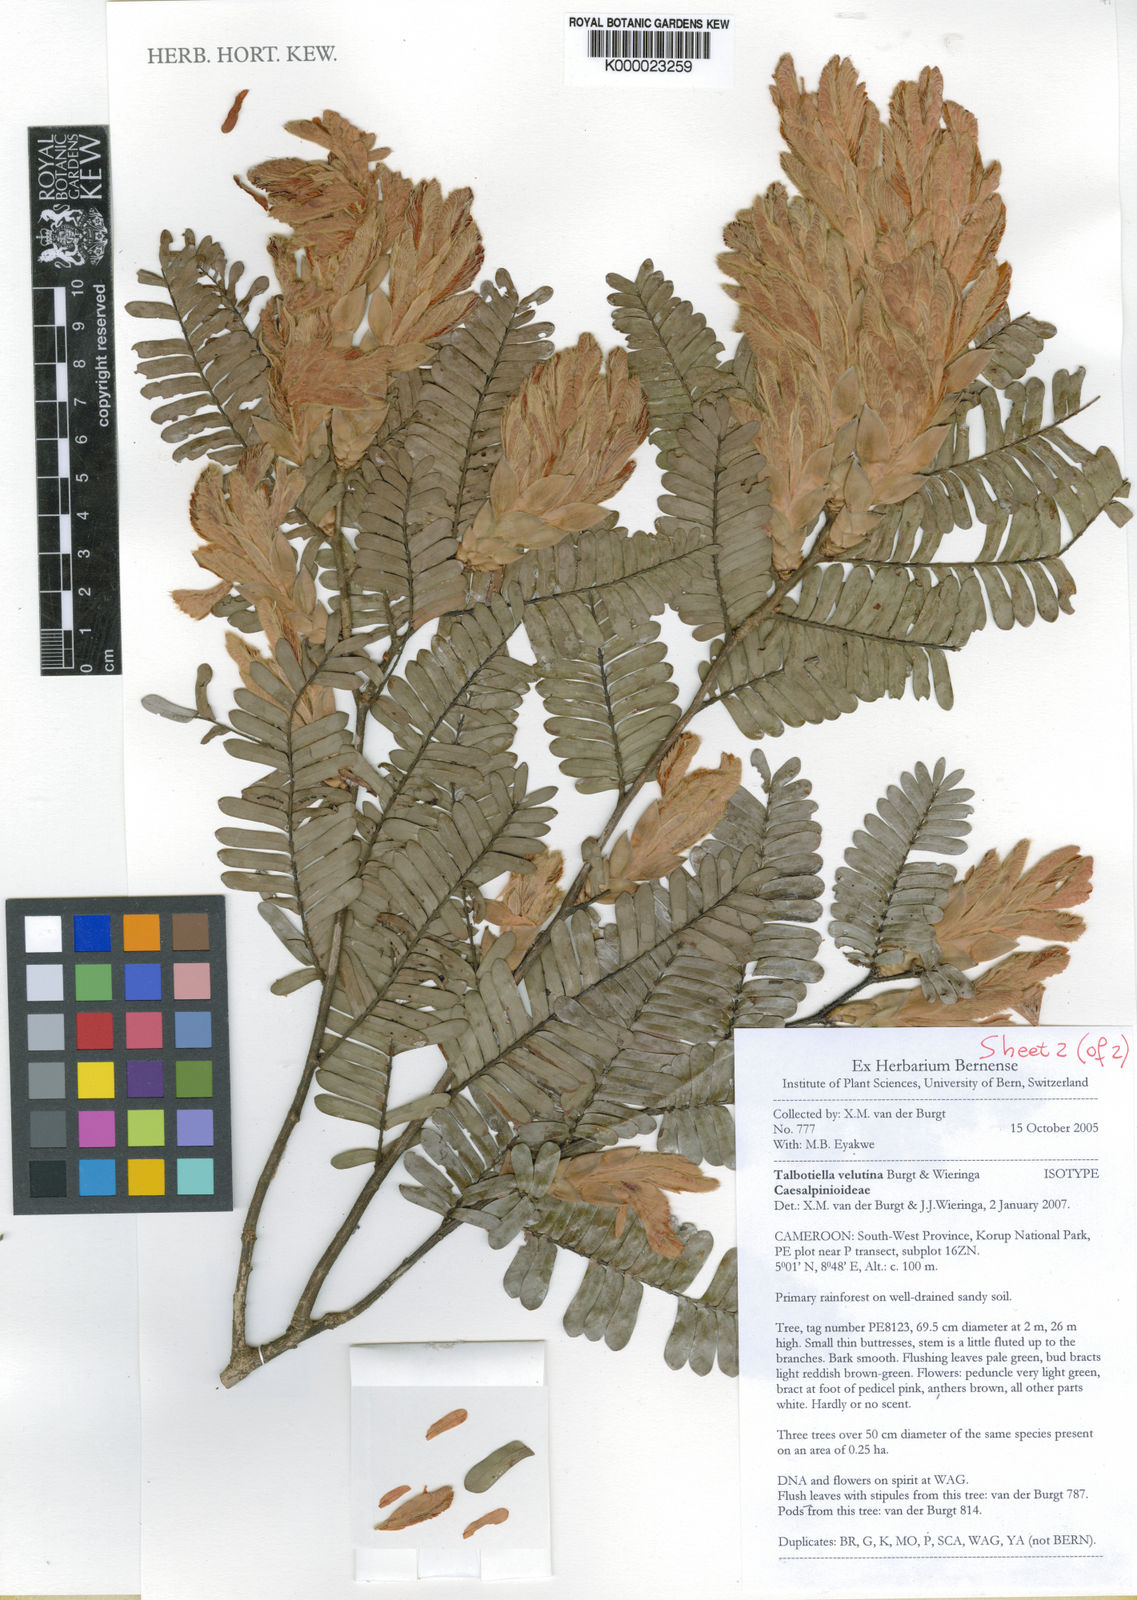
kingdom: Plantae
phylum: Tracheophyta
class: Magnoliopsida
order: Fabales
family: Fabaceae
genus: Talbotiella
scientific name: Talbotiella velutina
